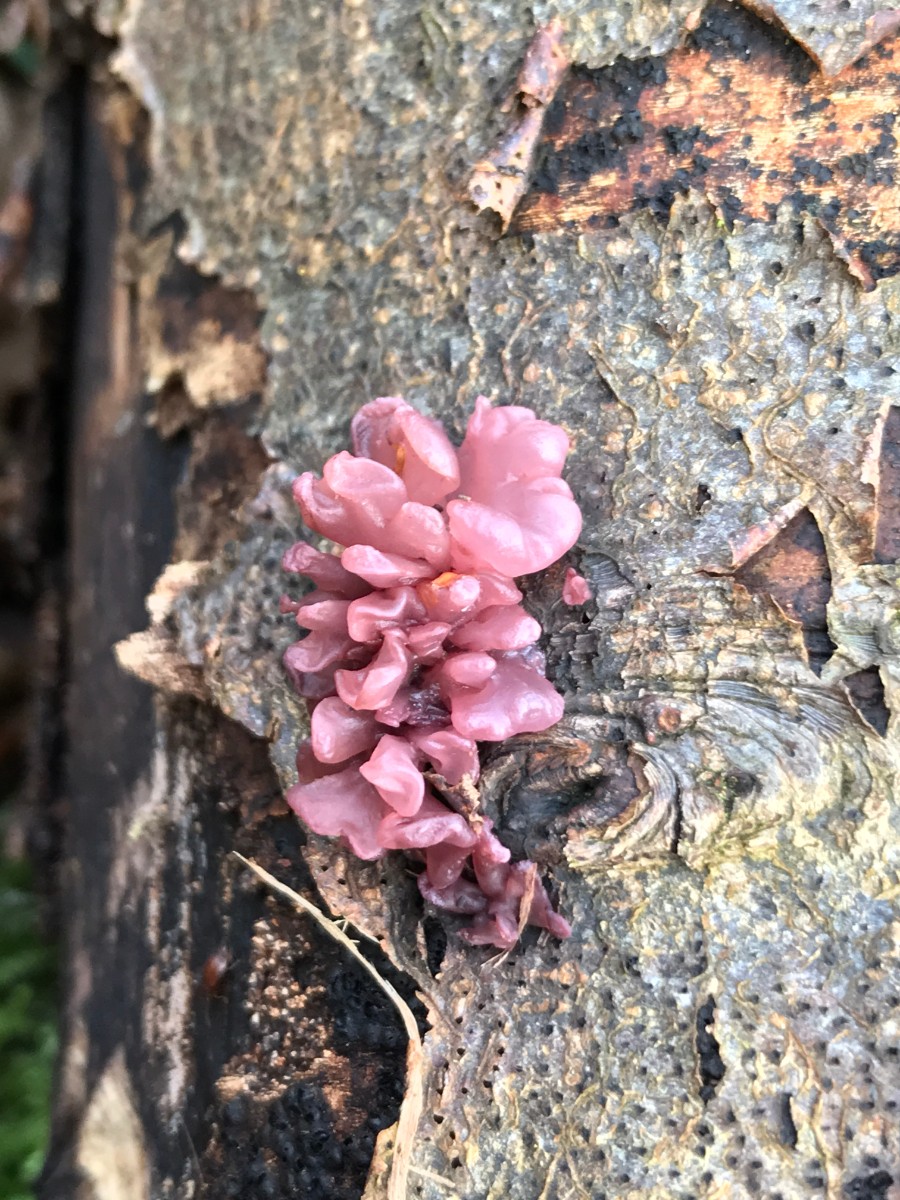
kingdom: Fungi
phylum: Ascomycota
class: Leotiomycetes
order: Helotiales
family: Gelatinodiscaceae
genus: Ascocoryne
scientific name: Ascocoryne sarcoides
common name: rødlilla sejskive
